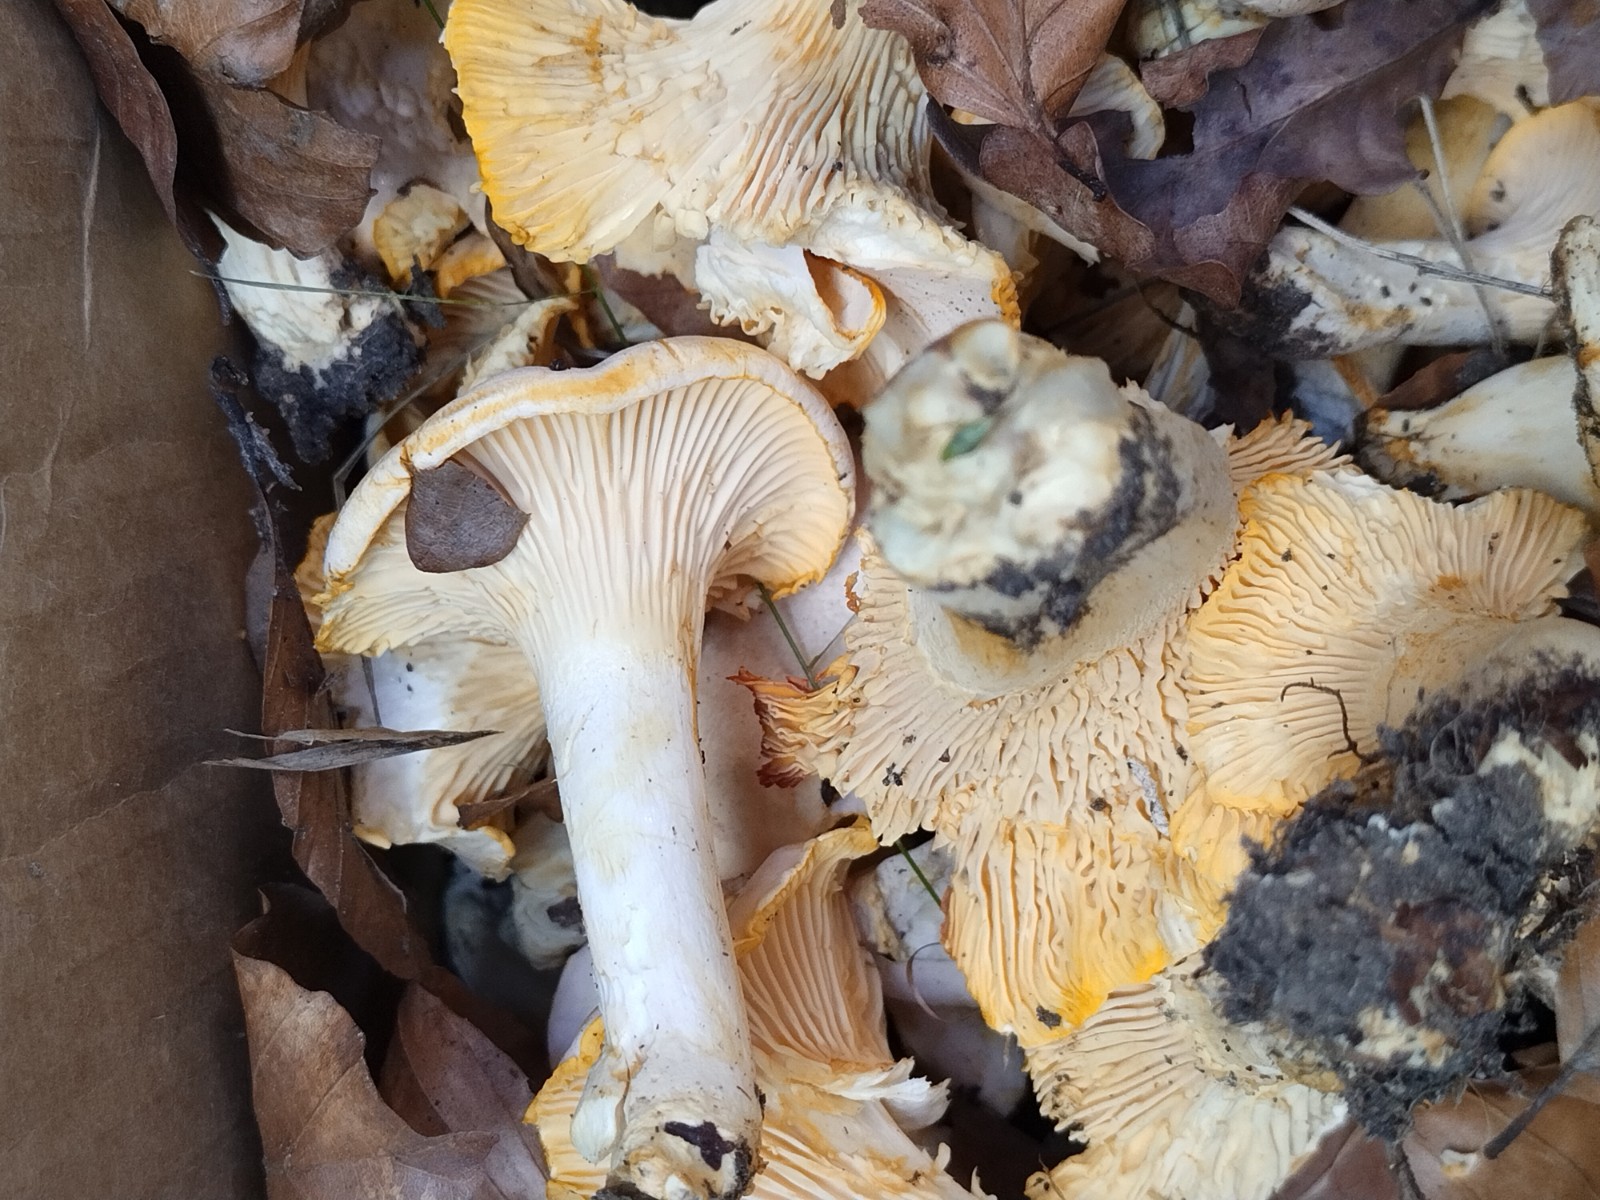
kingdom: Fungi
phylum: Basidiomycota
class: Agaricomycetes
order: Cantharellales
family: Hydnaceae
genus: Cantharellus
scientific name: Cantharellus pallens
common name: bleg kantarel
